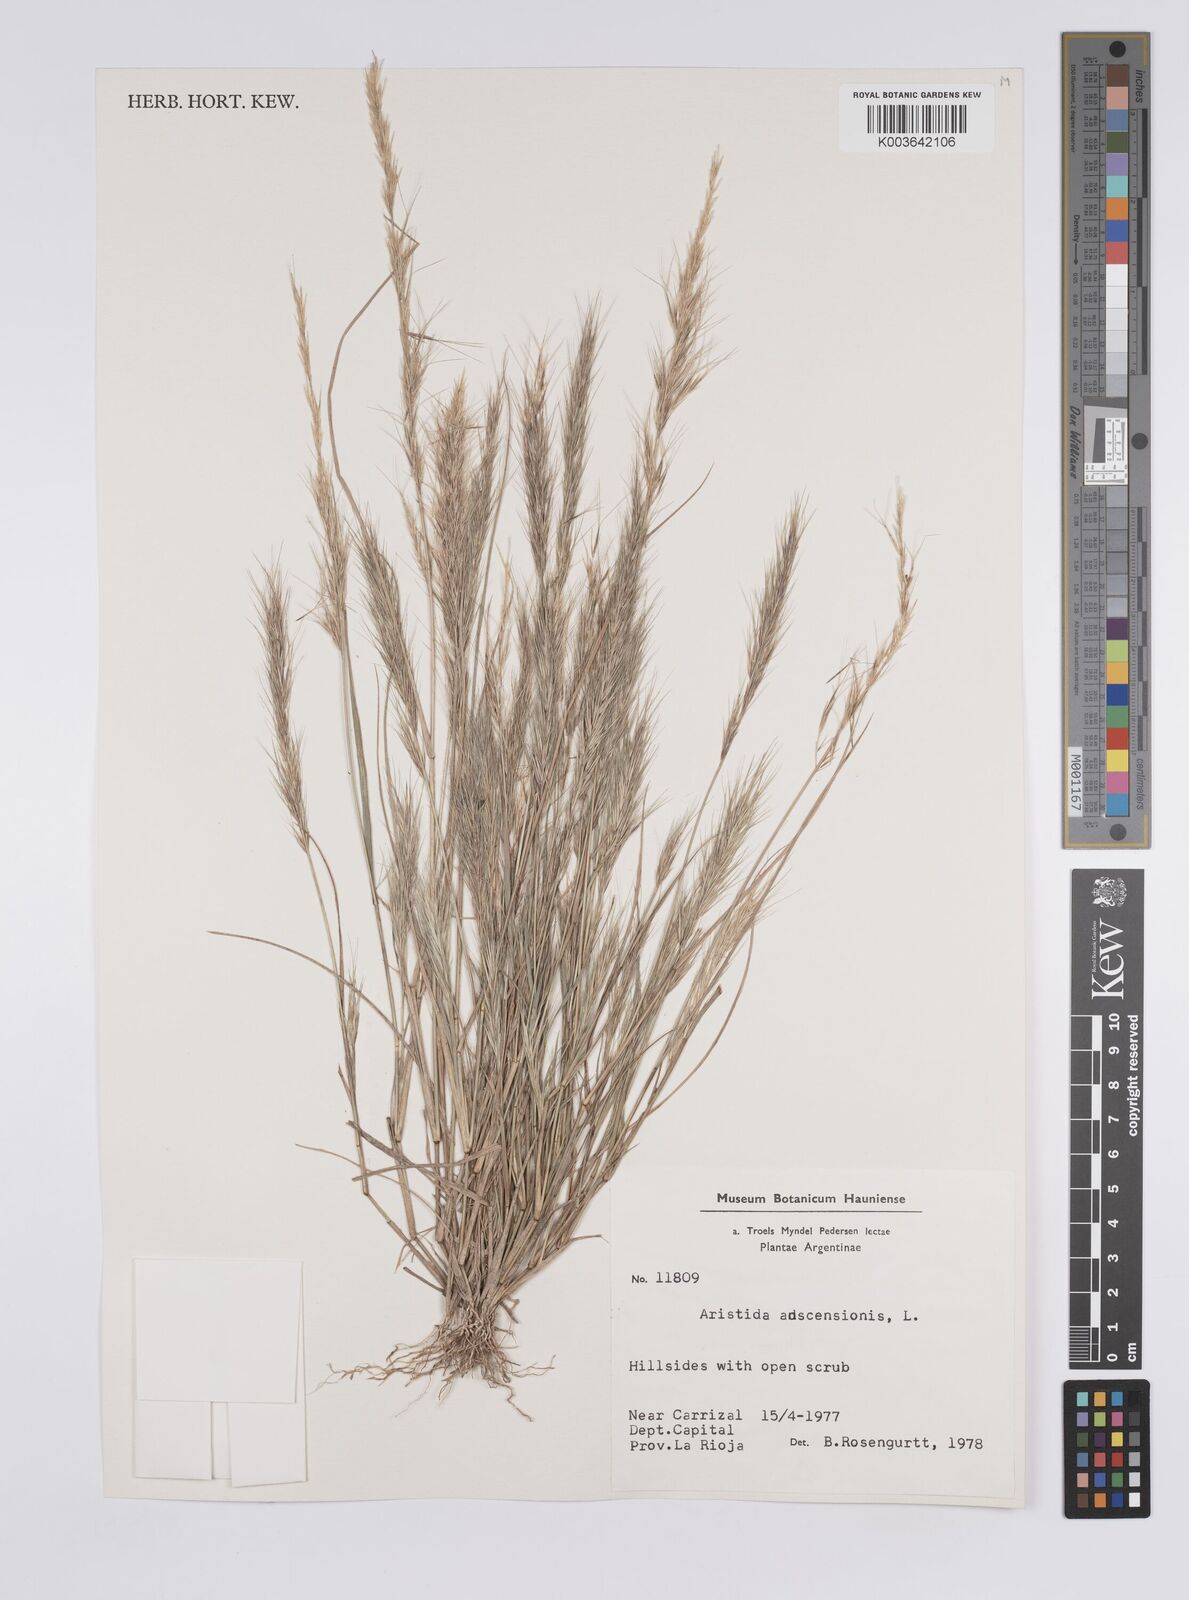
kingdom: Plantae
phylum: Tracheophyta
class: Liliopsida
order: Poales
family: Poaceae
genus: Aristida
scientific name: Aristida adscensionis
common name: Sixweeks threeawn
